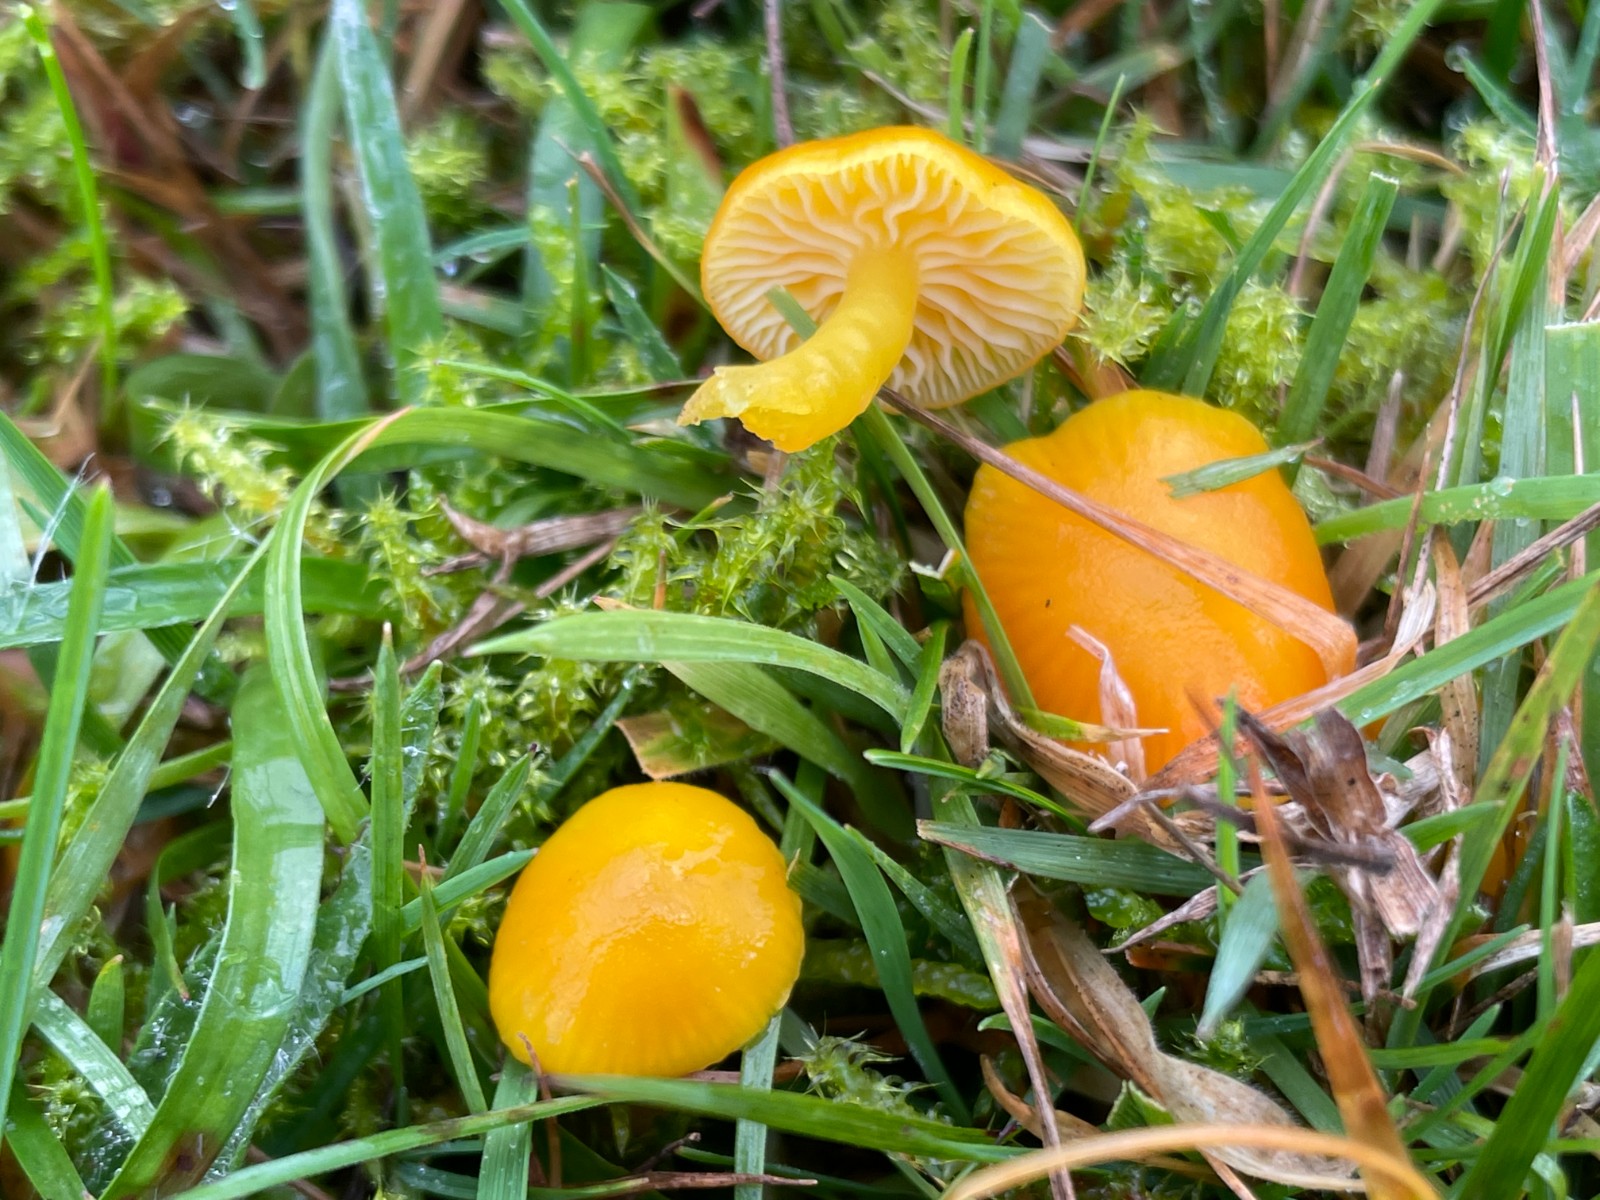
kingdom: Fungi
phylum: Basidiomycota
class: Agaricomycetes
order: Agaricales
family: Hygrophoraceae
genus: Hygrocybe
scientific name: Hygrocybe ceracea
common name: voksgul vokshat
